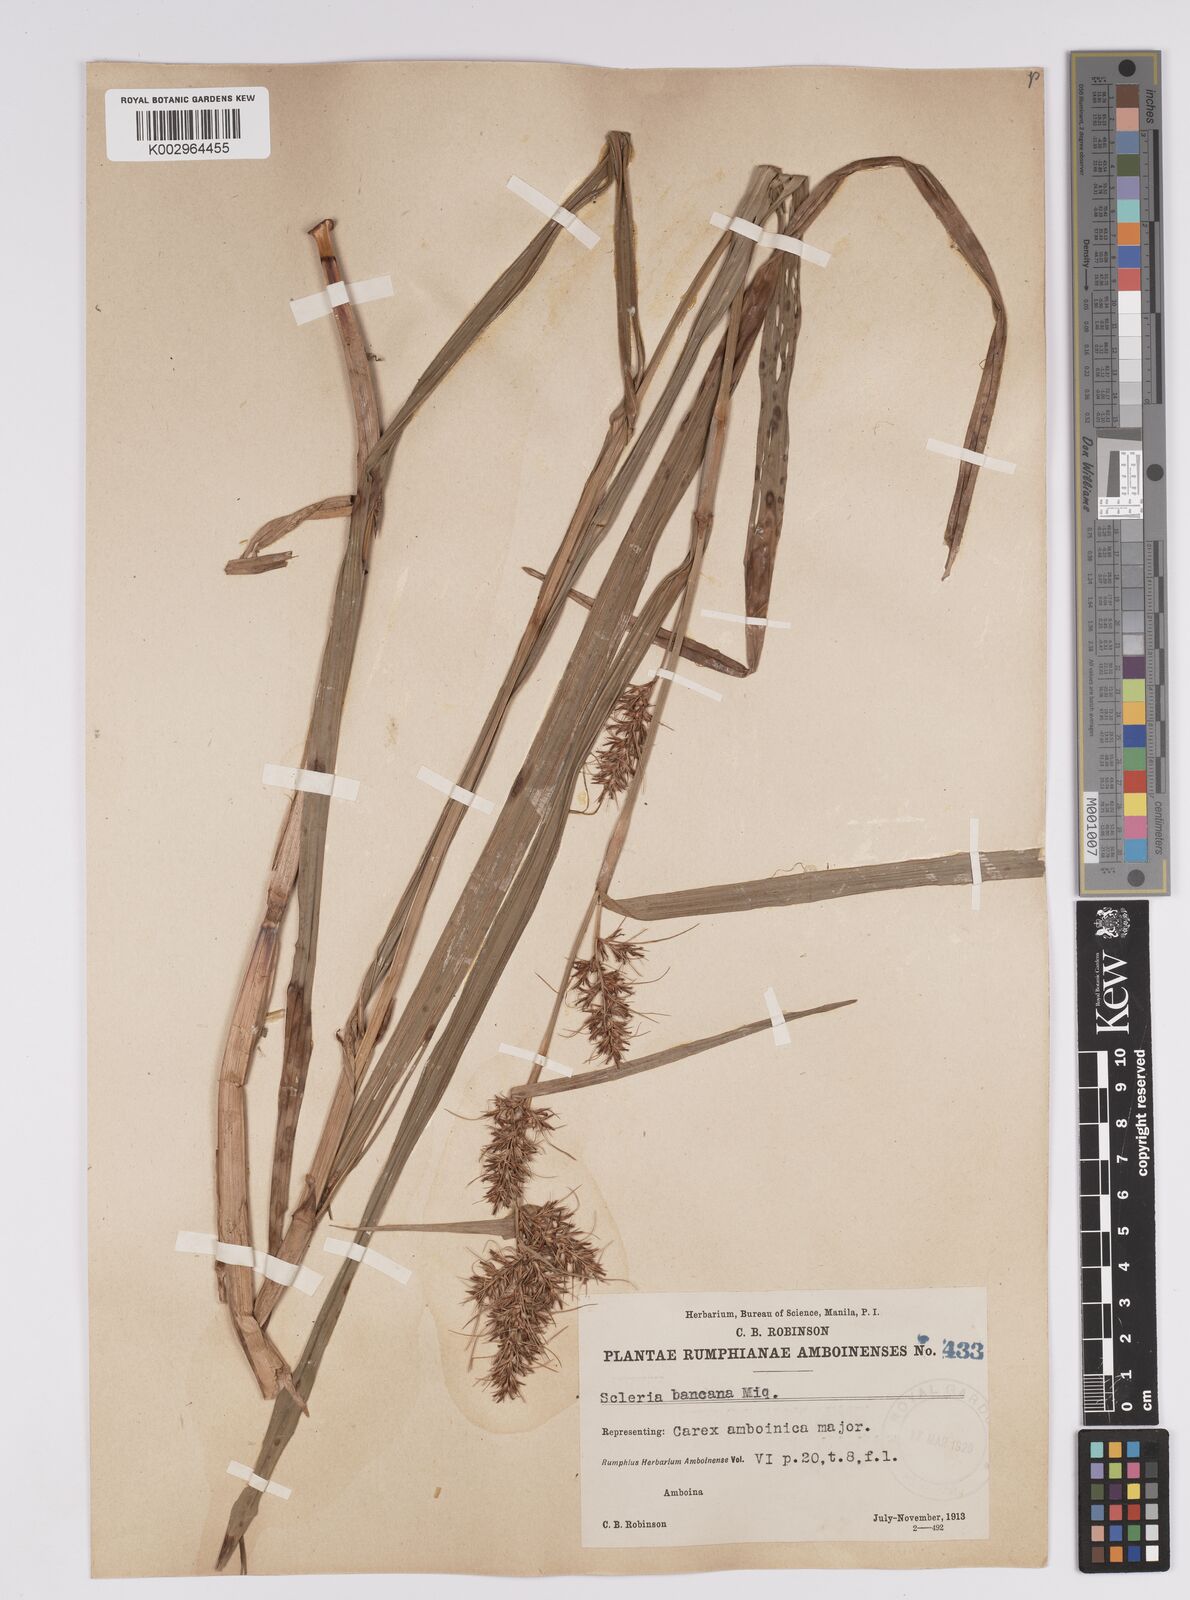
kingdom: Plantae
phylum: Tracheophyta
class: Liliopsida
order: Poales
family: Cyperaceae
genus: Scleria
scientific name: Scleria ciliaris
